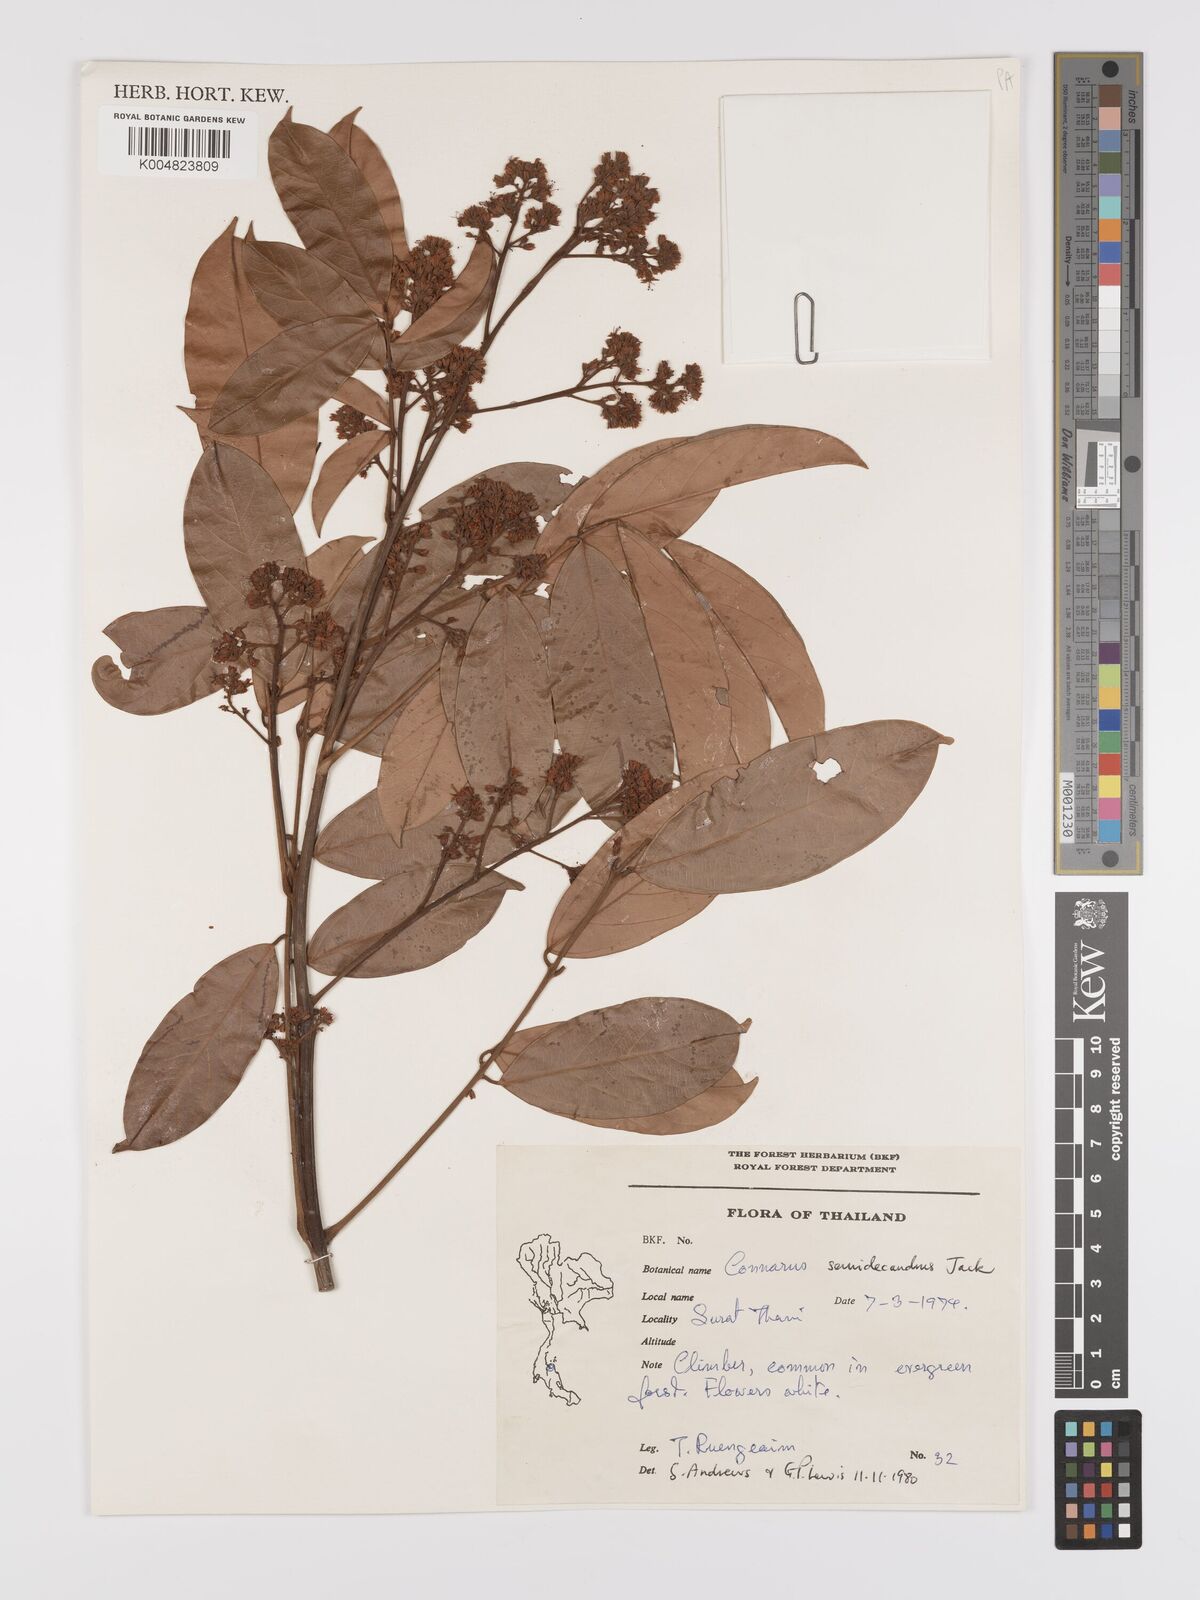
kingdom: Plantae
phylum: Tracheophyta
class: Magnoliopsida
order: Oxalidales
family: Connaraceae
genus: Connarus
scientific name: Connarus semidecandrus
